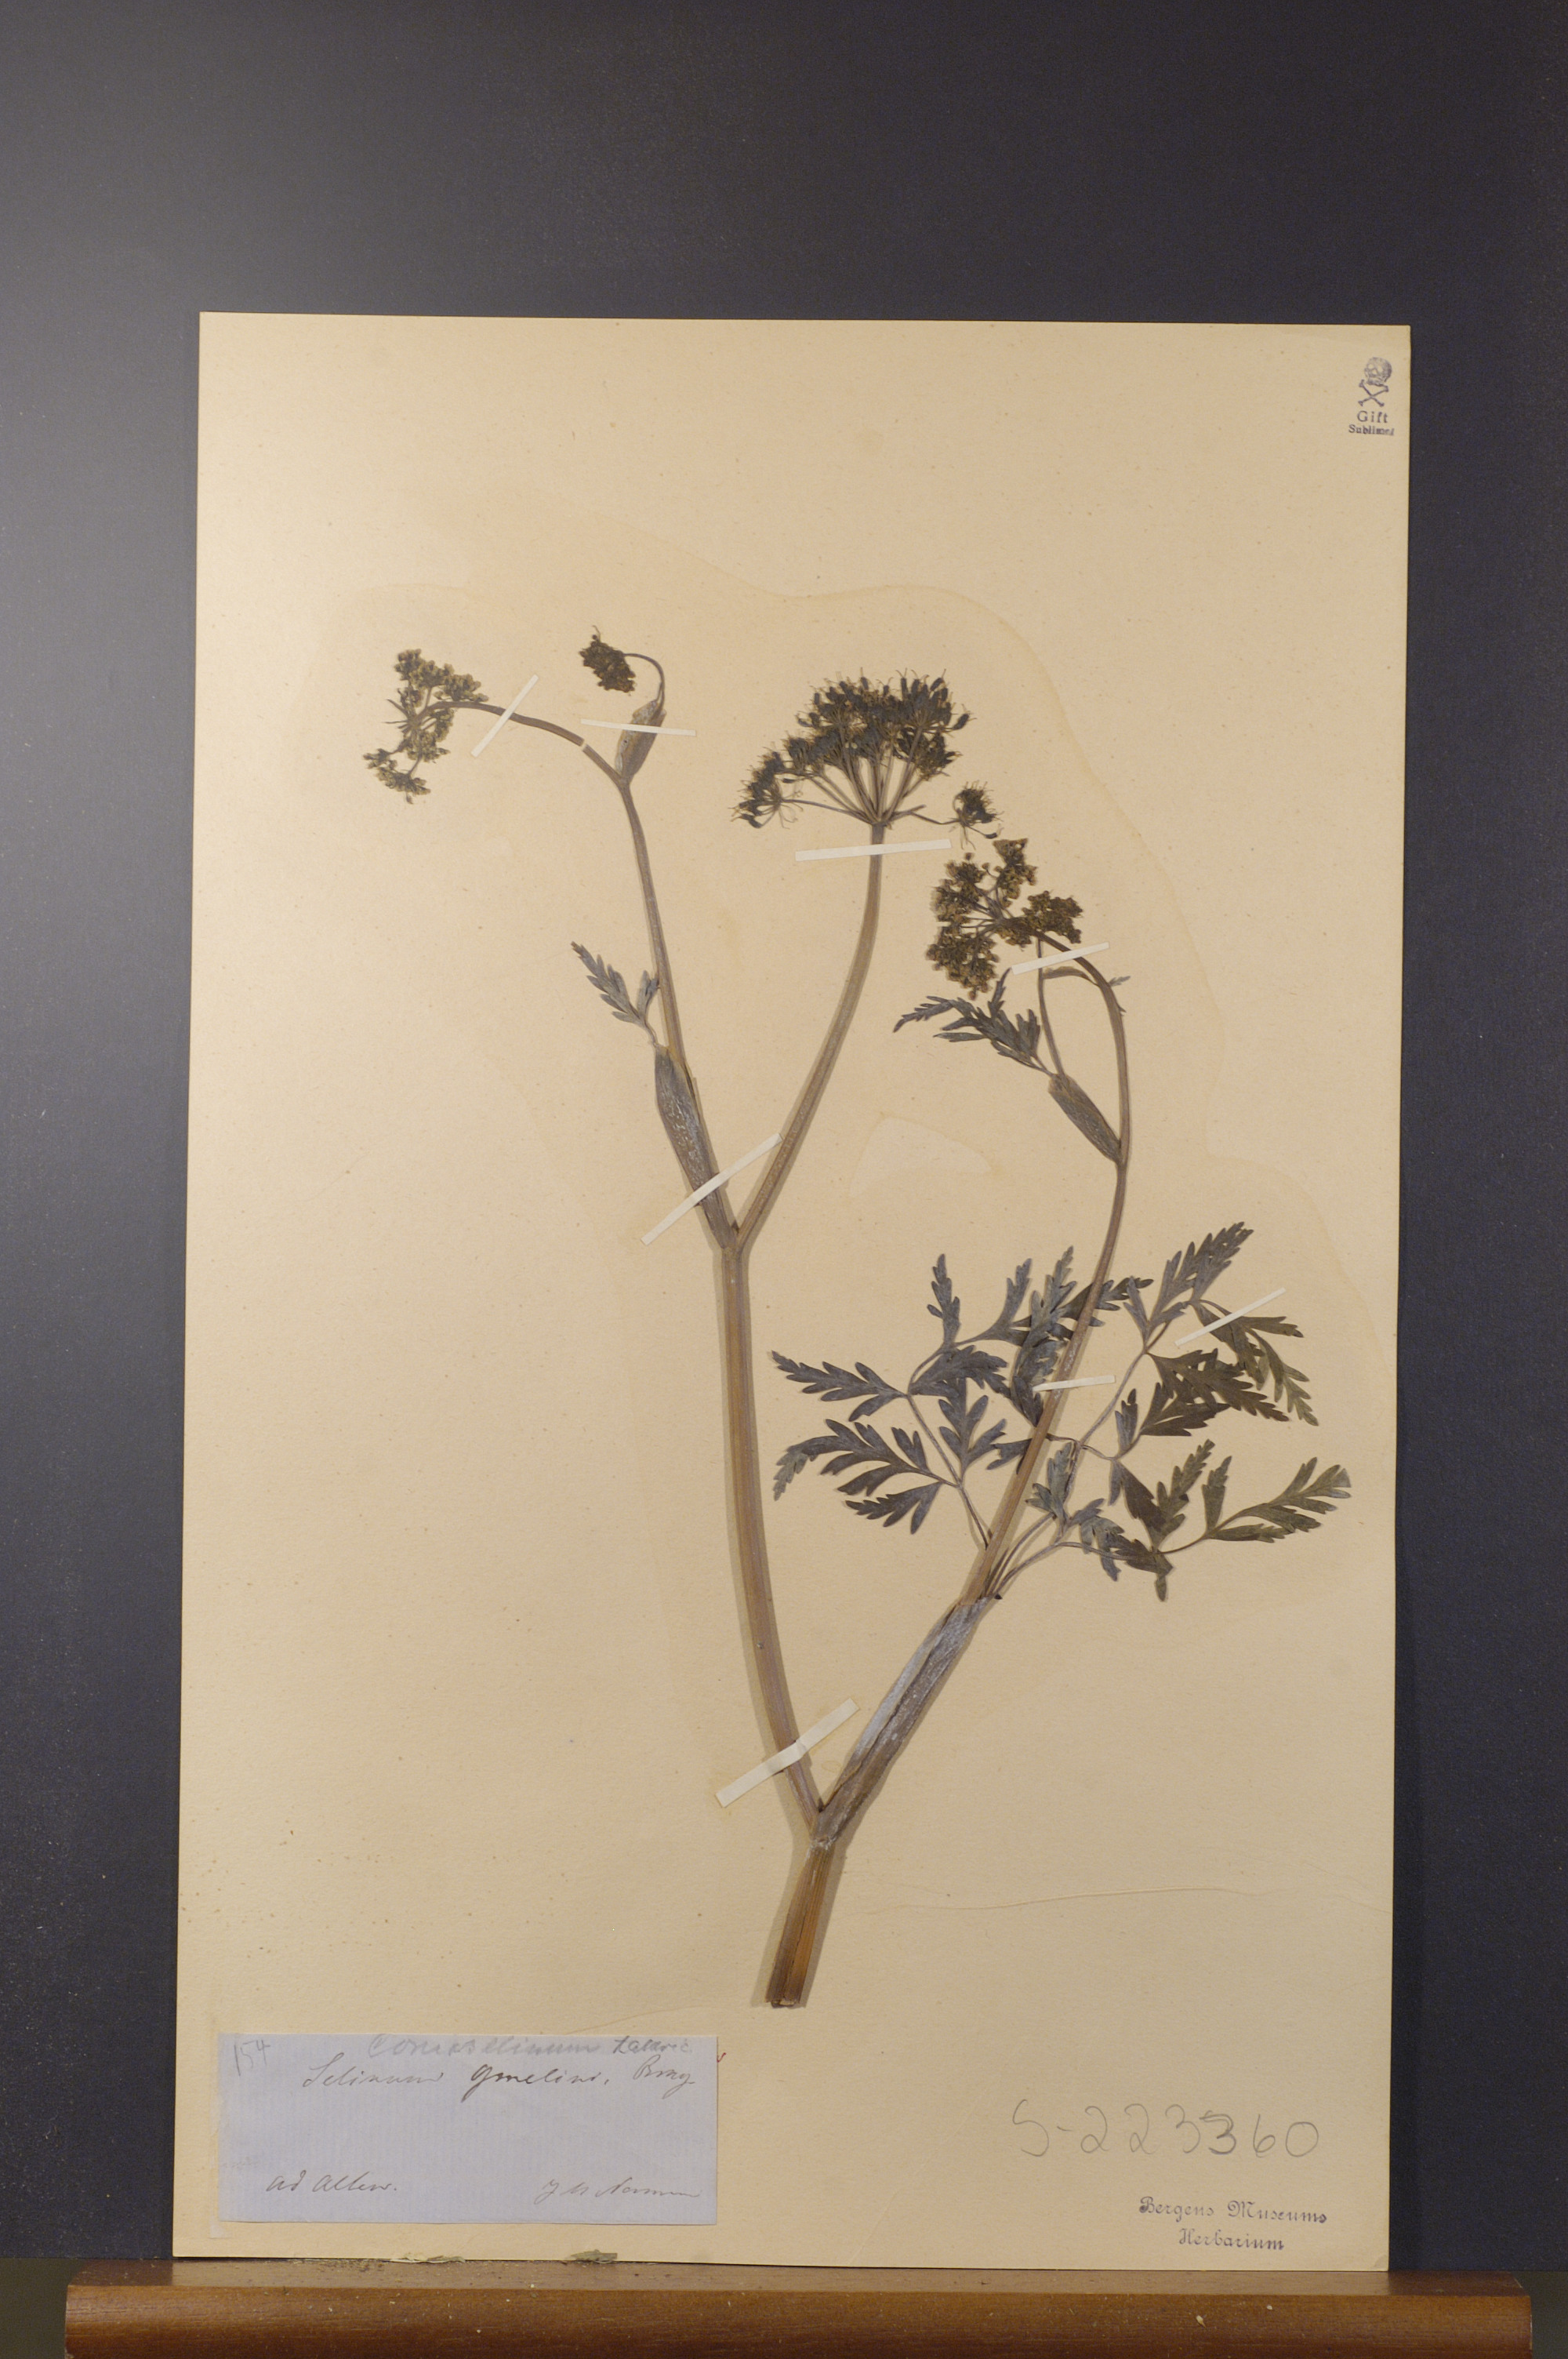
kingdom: Plantae
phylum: Tracheophyta
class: Magnoliopsida
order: Apiales
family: Apiaceae
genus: Seseli
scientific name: Seseli condensatum
